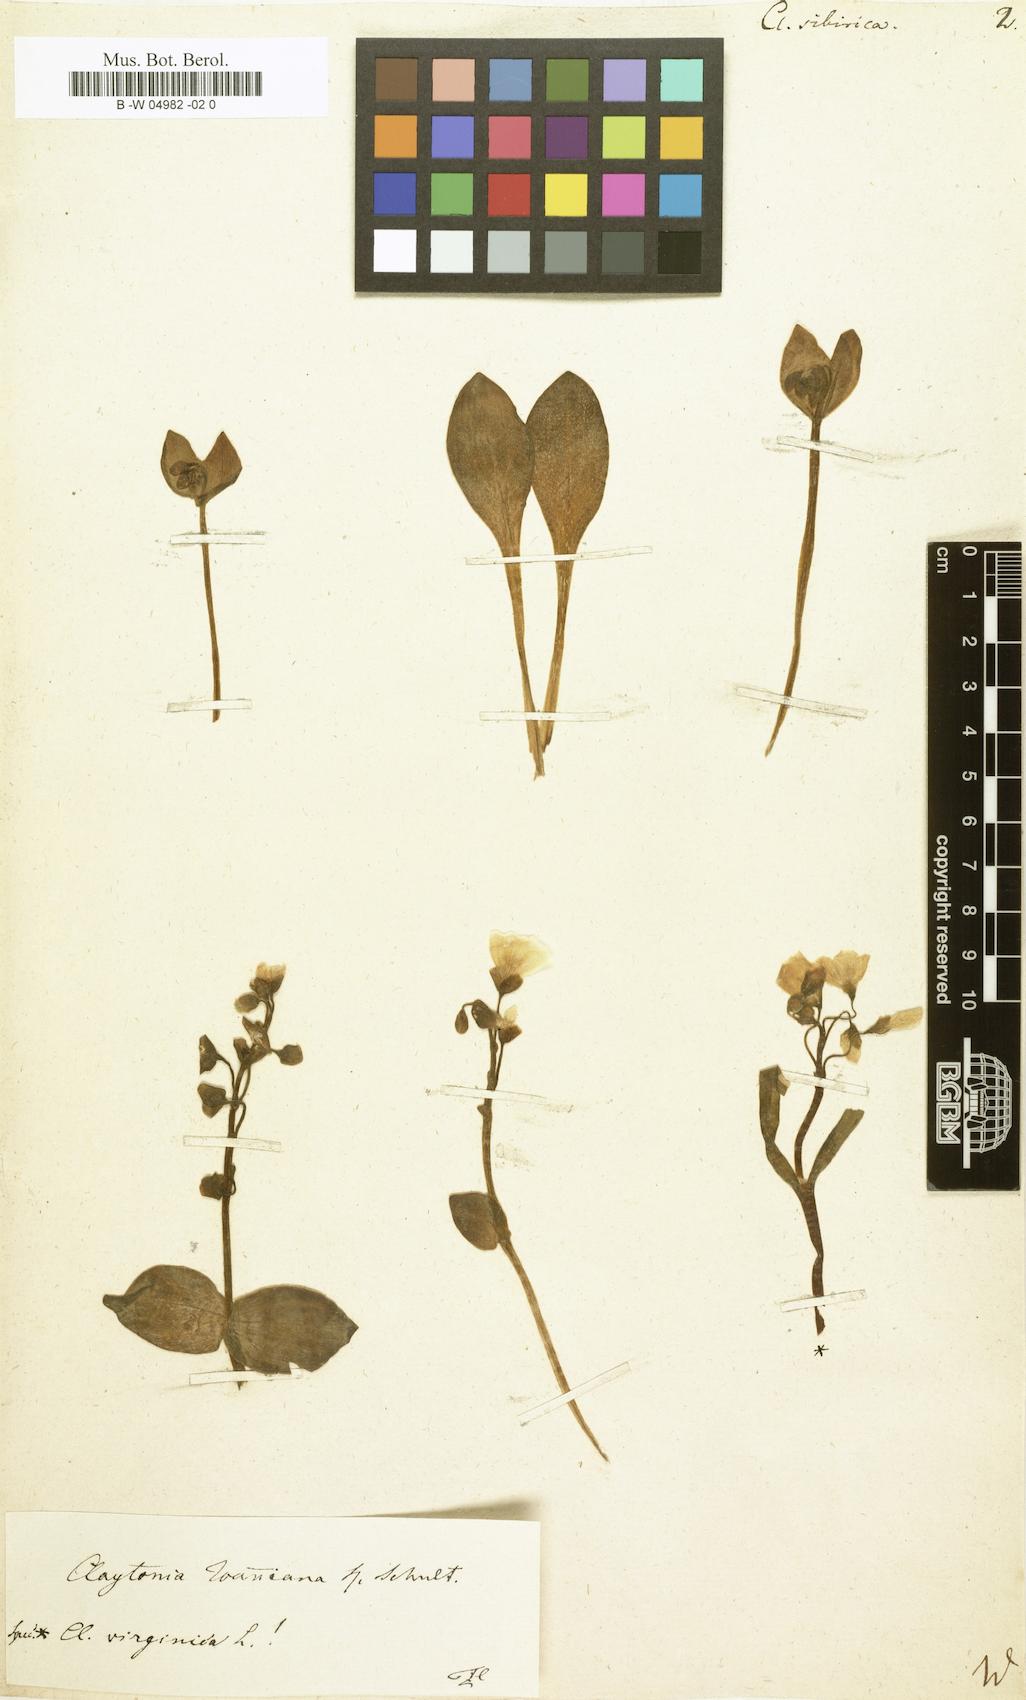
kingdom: Plantae
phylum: Tracheophyta
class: Magnoliopsida
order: Caryophyllales
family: Montiaceae
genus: Claytonia
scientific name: Claytonia sibirica
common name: Pink purslane
